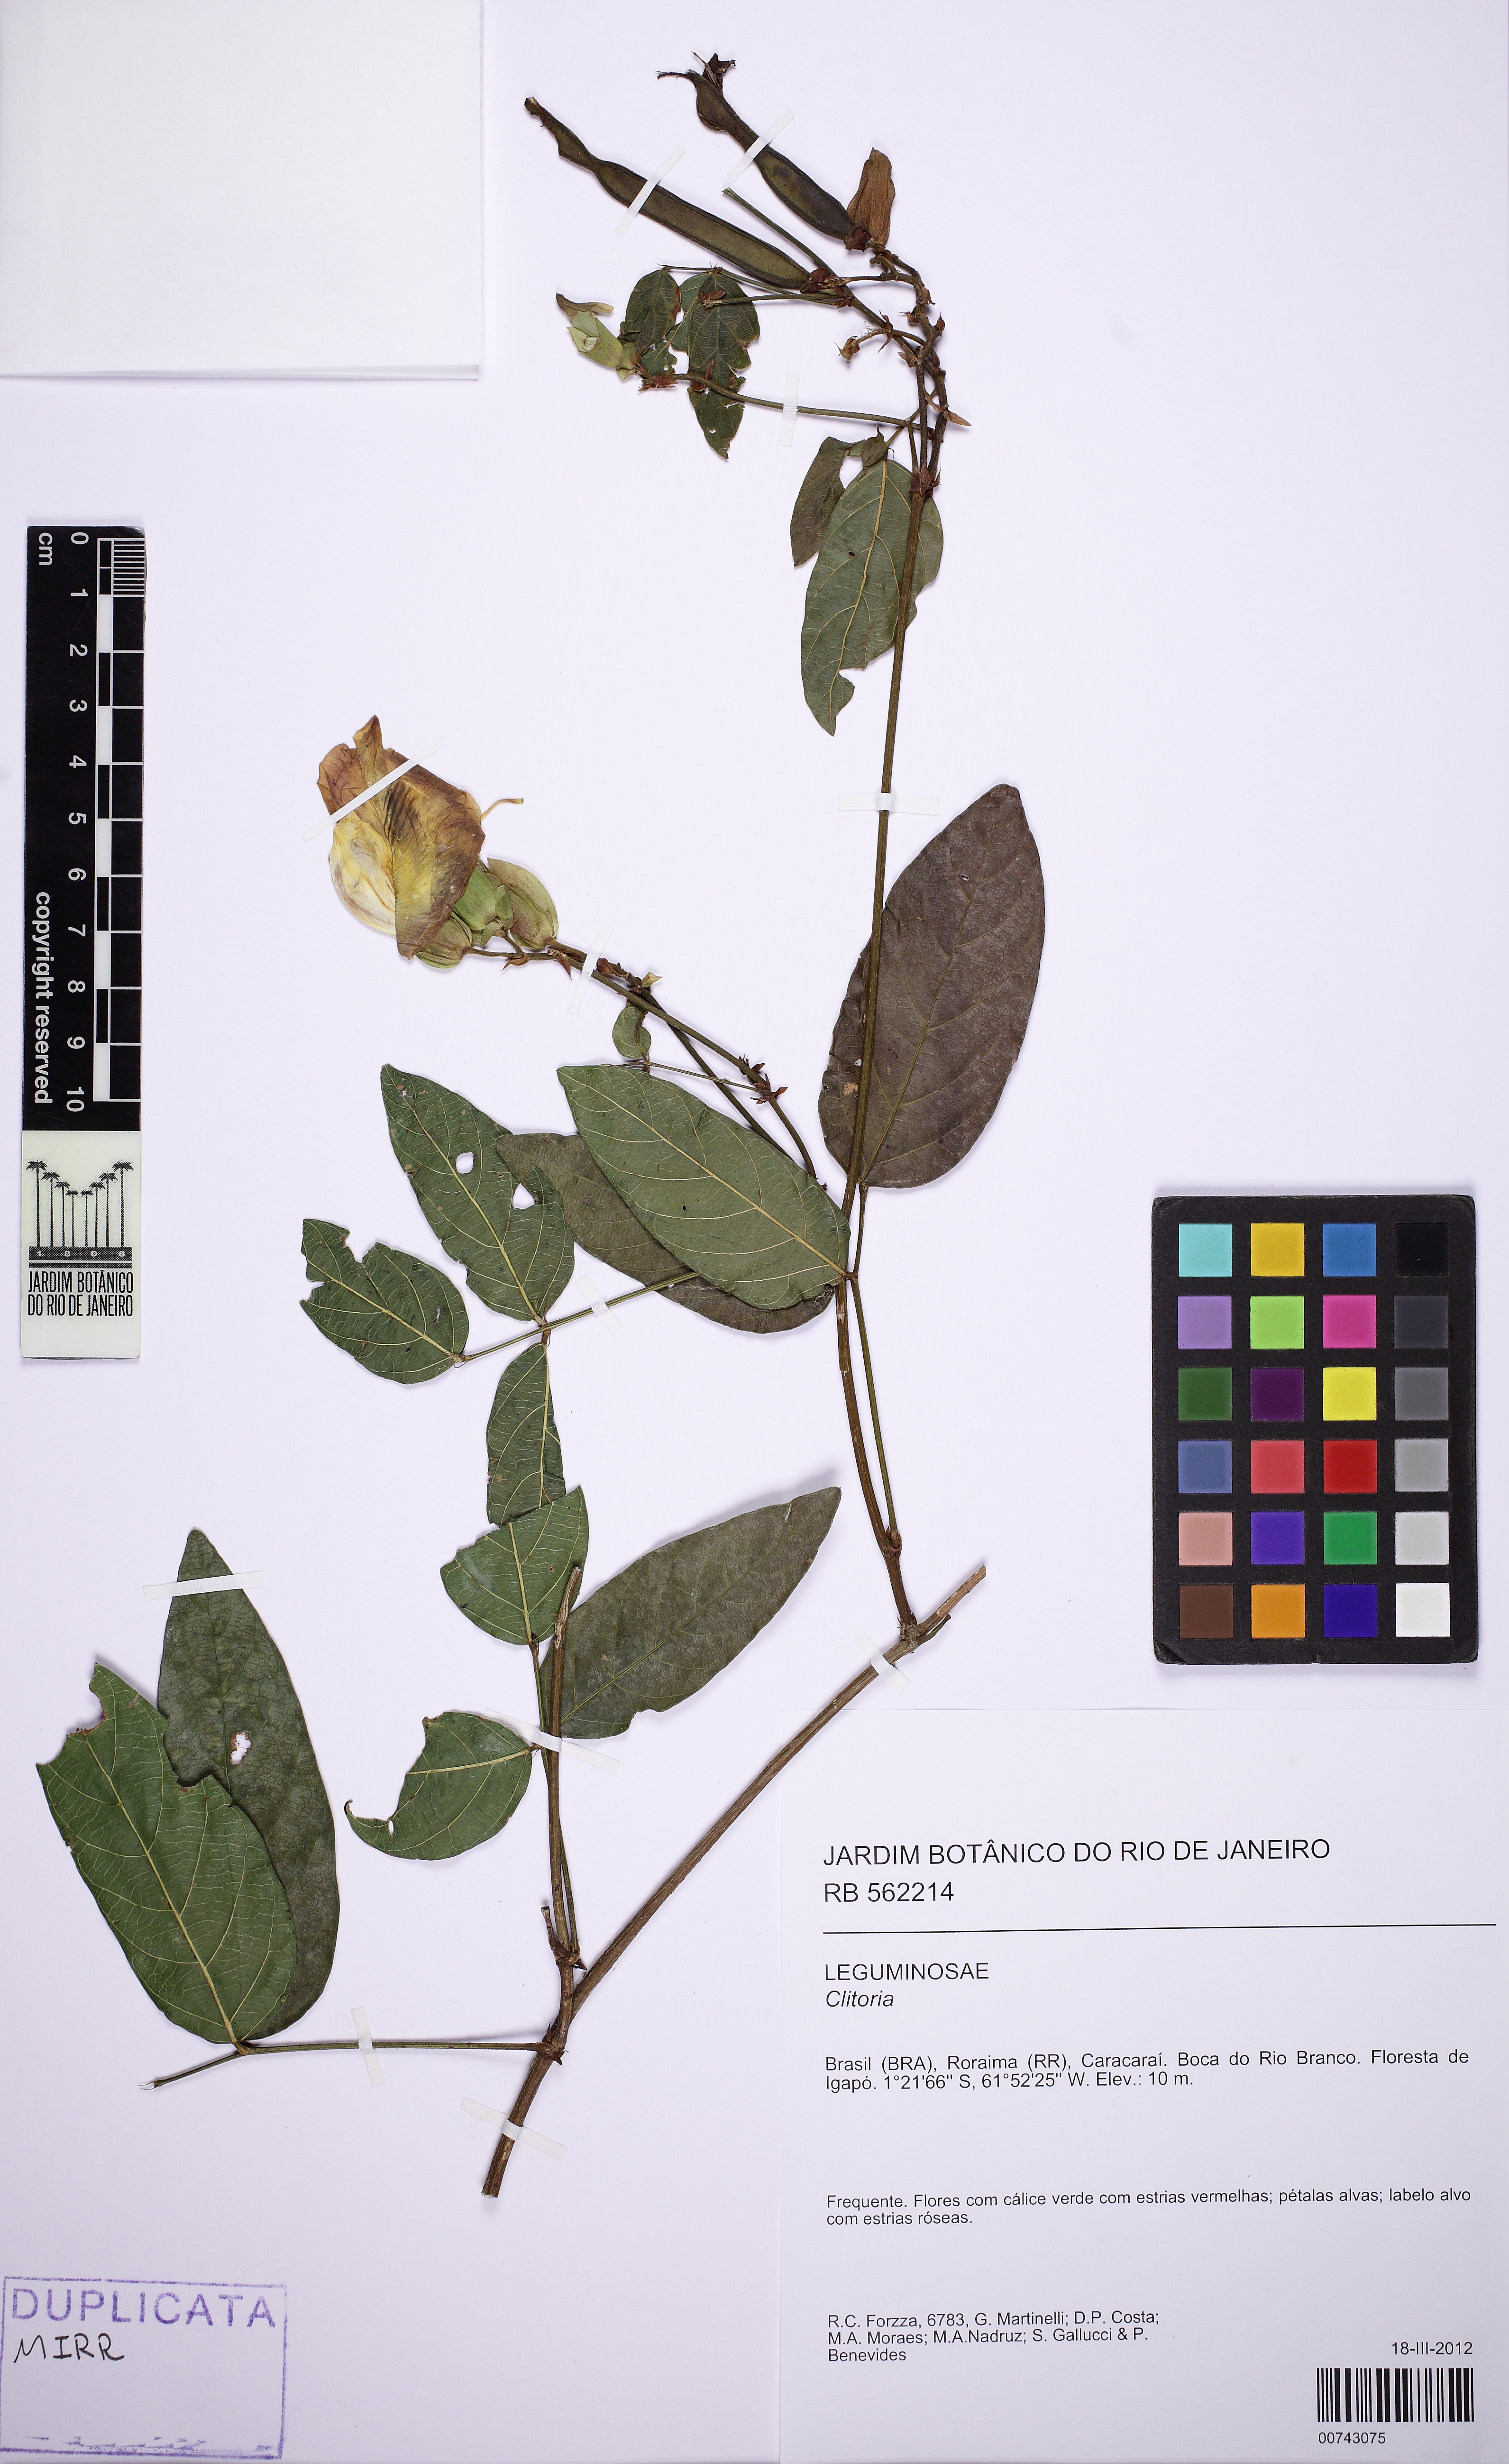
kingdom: Plantae
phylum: Tracheophyta
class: Magnoliopsida
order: Fabales
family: Fabaceae
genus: Centrosema
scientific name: Centrosema
